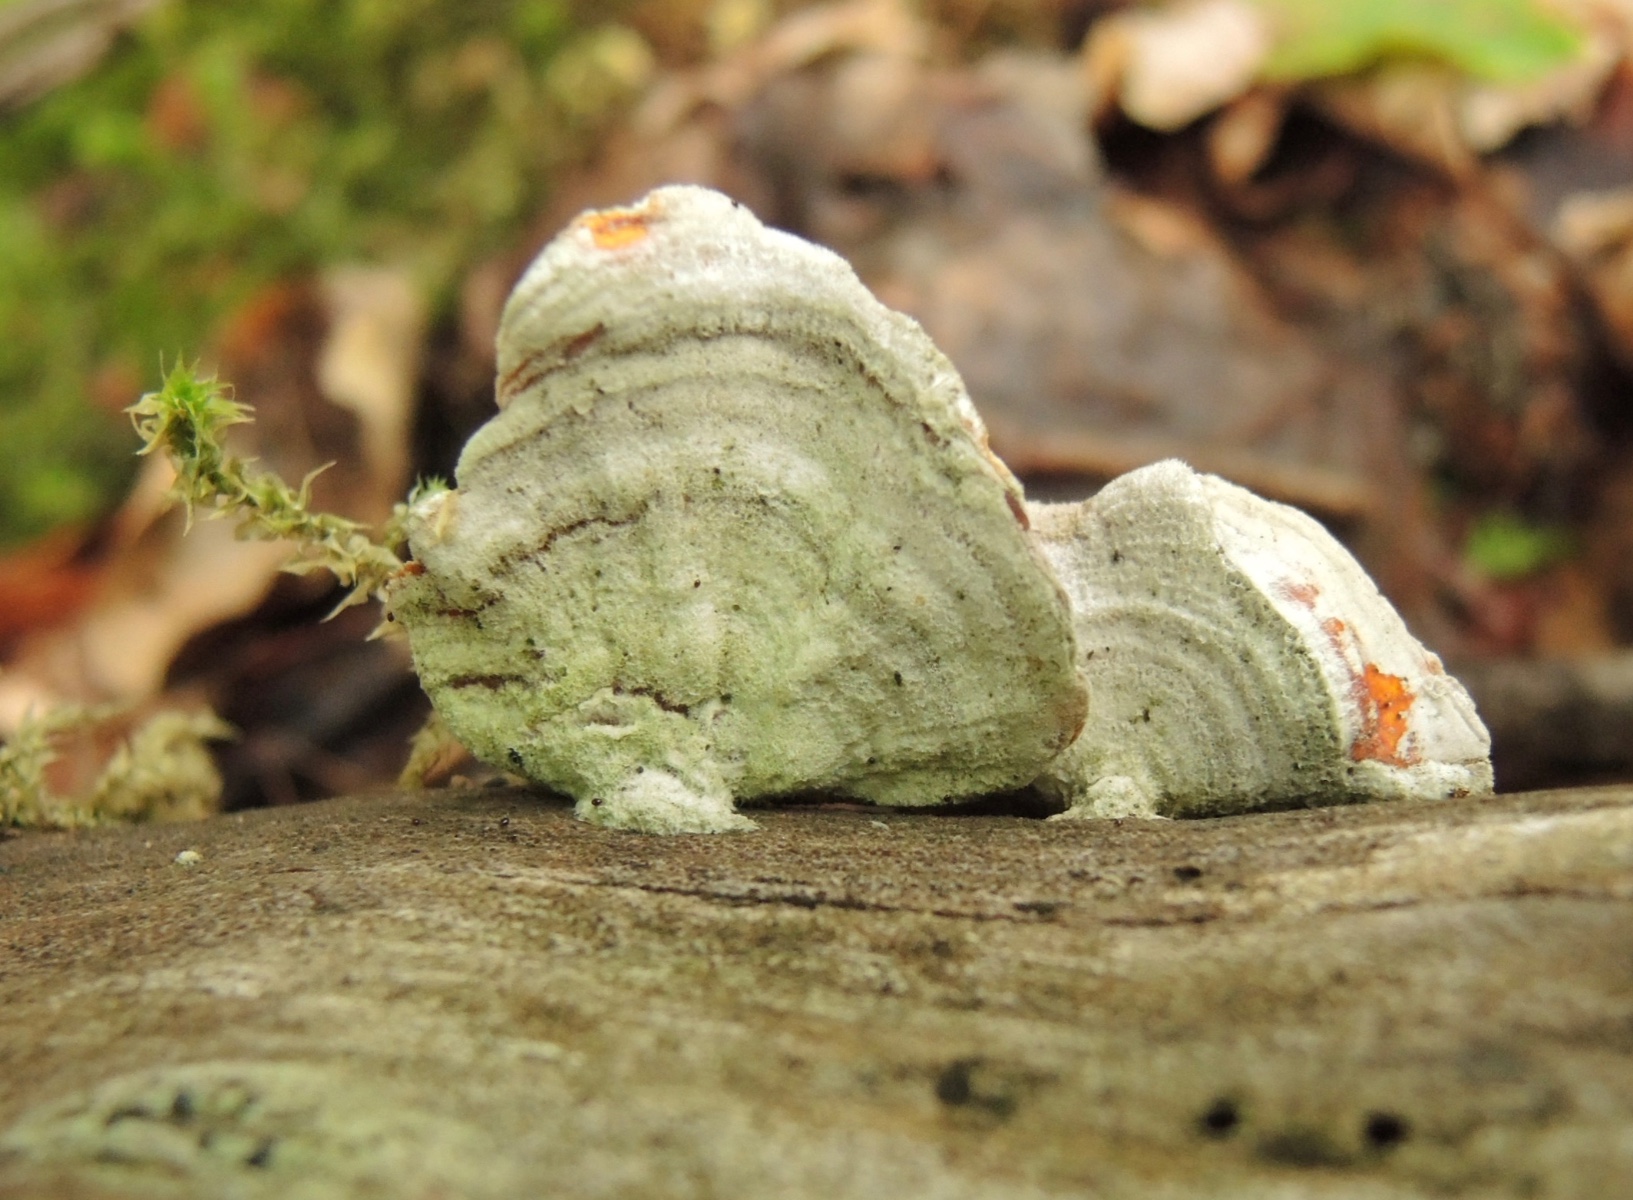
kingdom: Fungi
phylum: Basidiomycota
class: Agaricomycetes
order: Russulales
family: Stereaceae
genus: Stereum
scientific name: Stereum subtomentosum
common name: smuk lædersvamp
